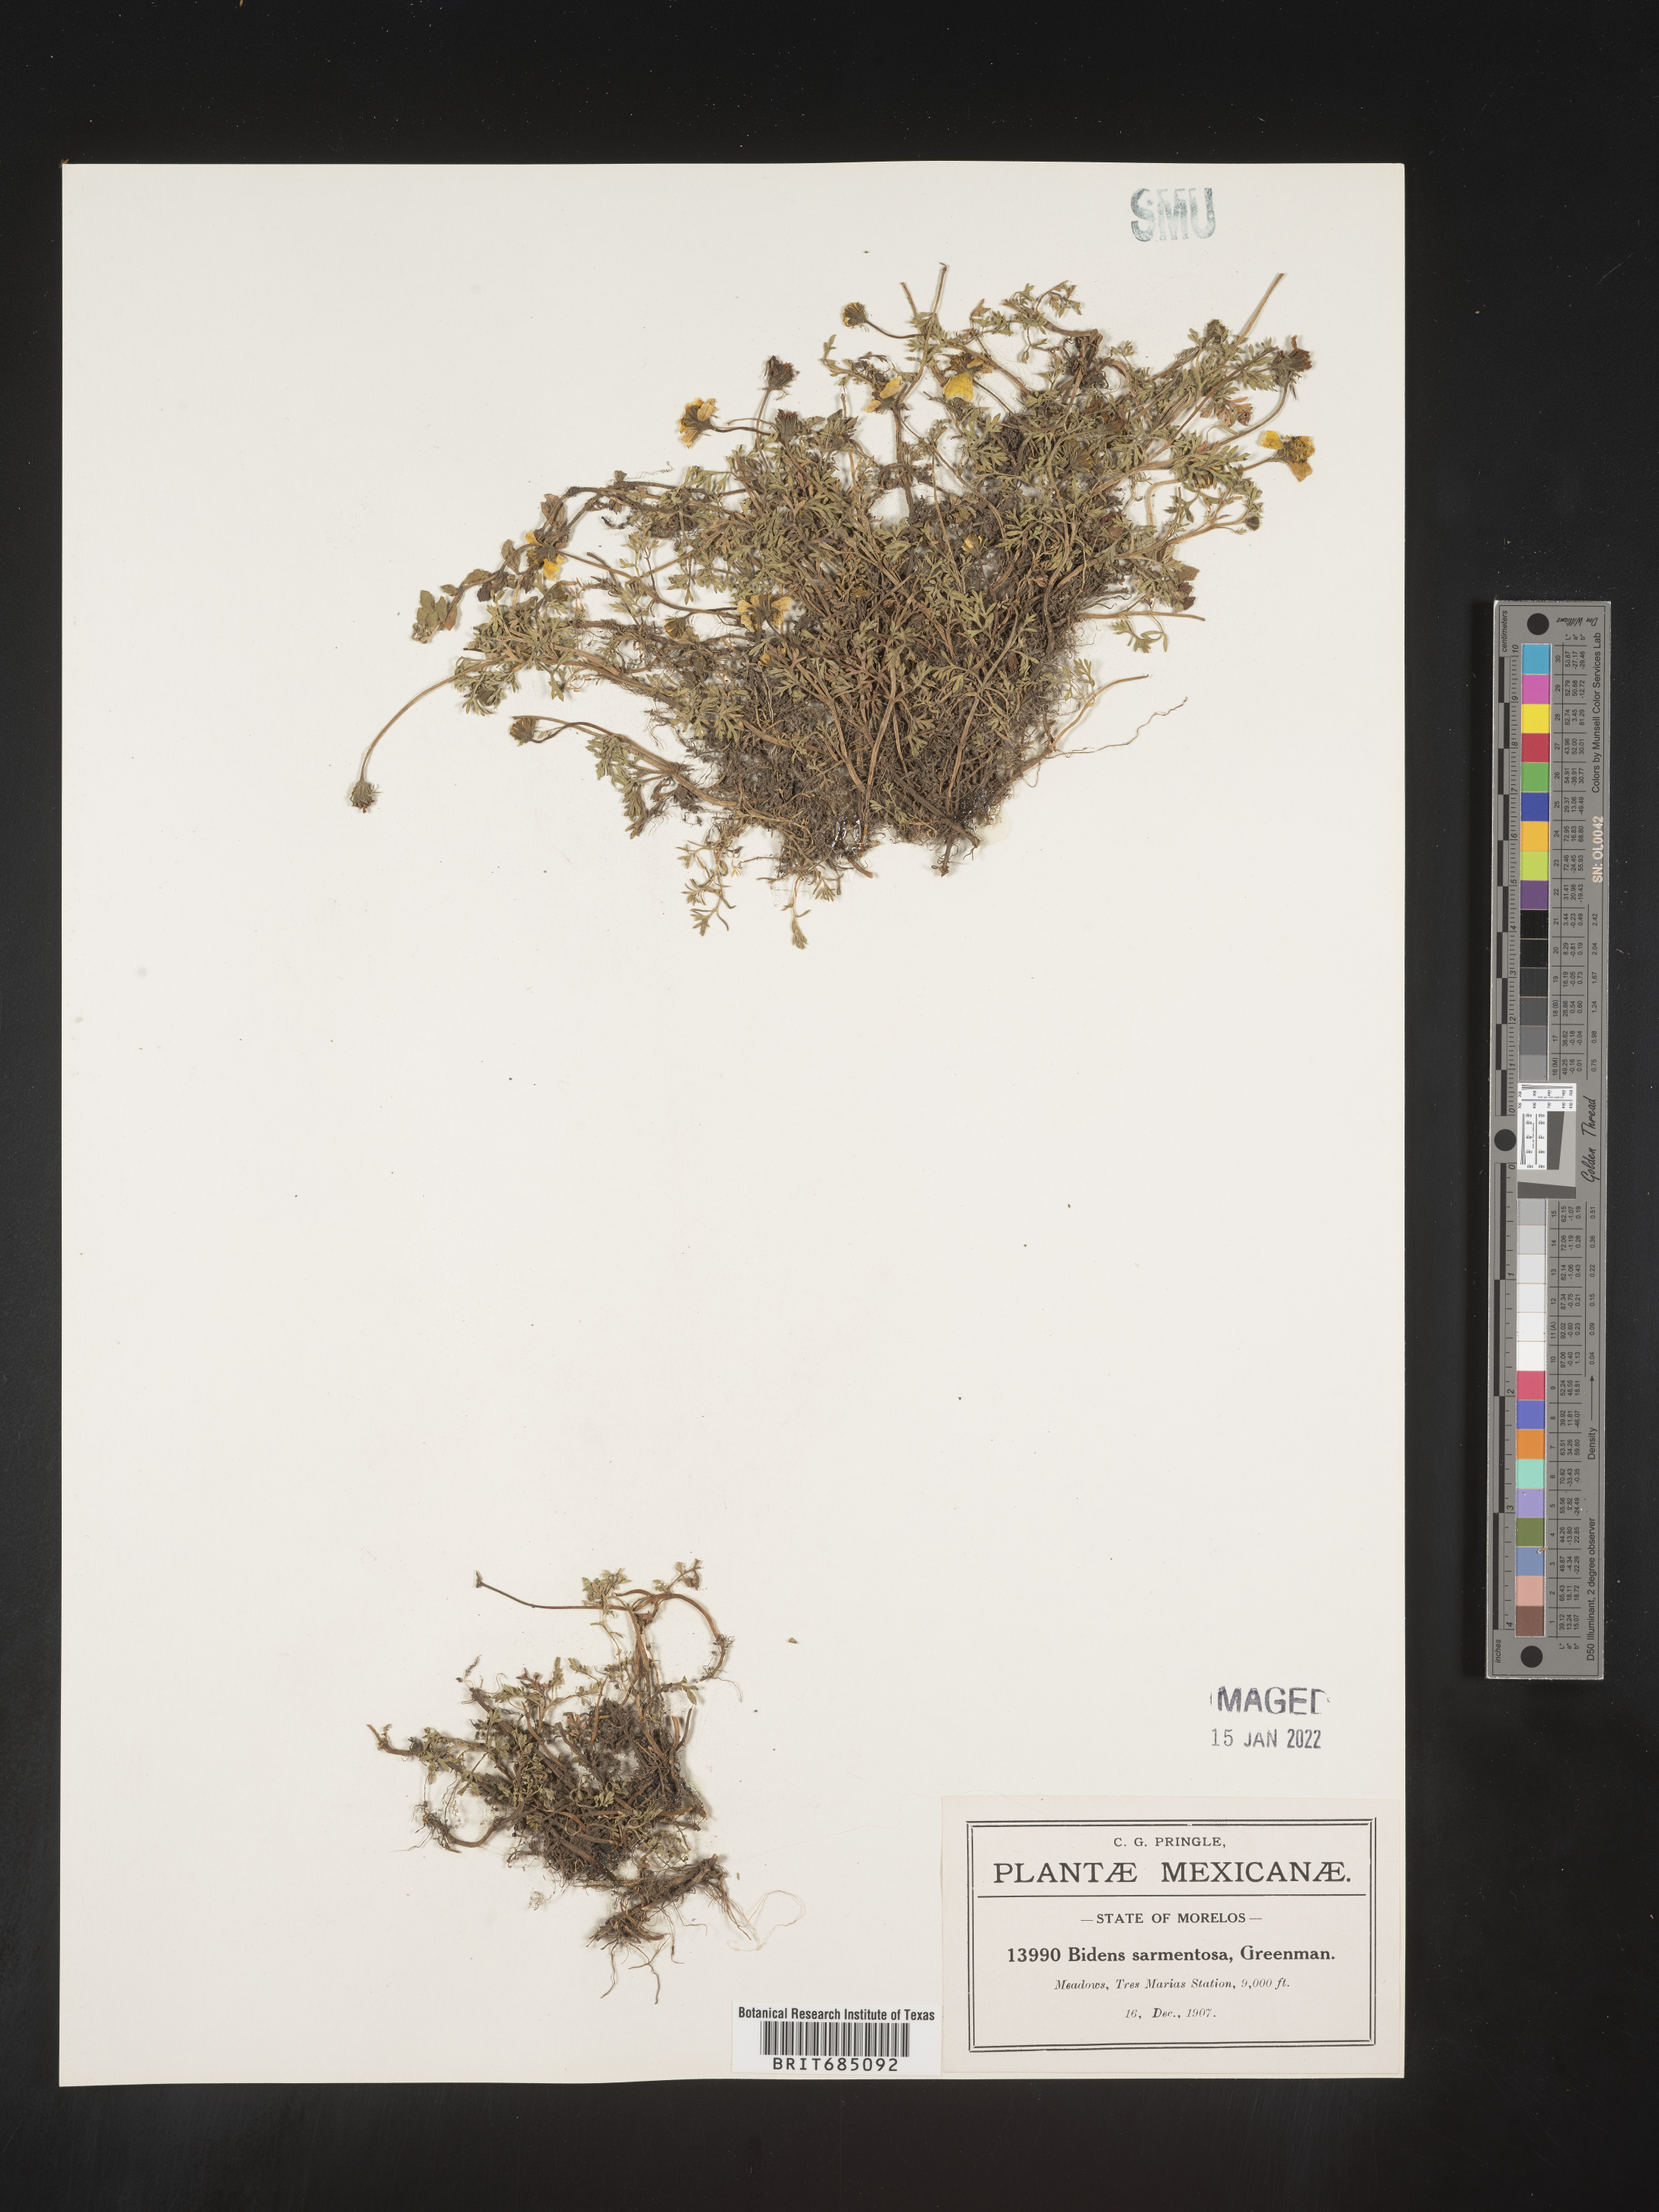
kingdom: Plantae
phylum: Tracheophyta
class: Magnoliopsida
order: Asterales
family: Asteraceae
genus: Bidens
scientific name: Bidens
